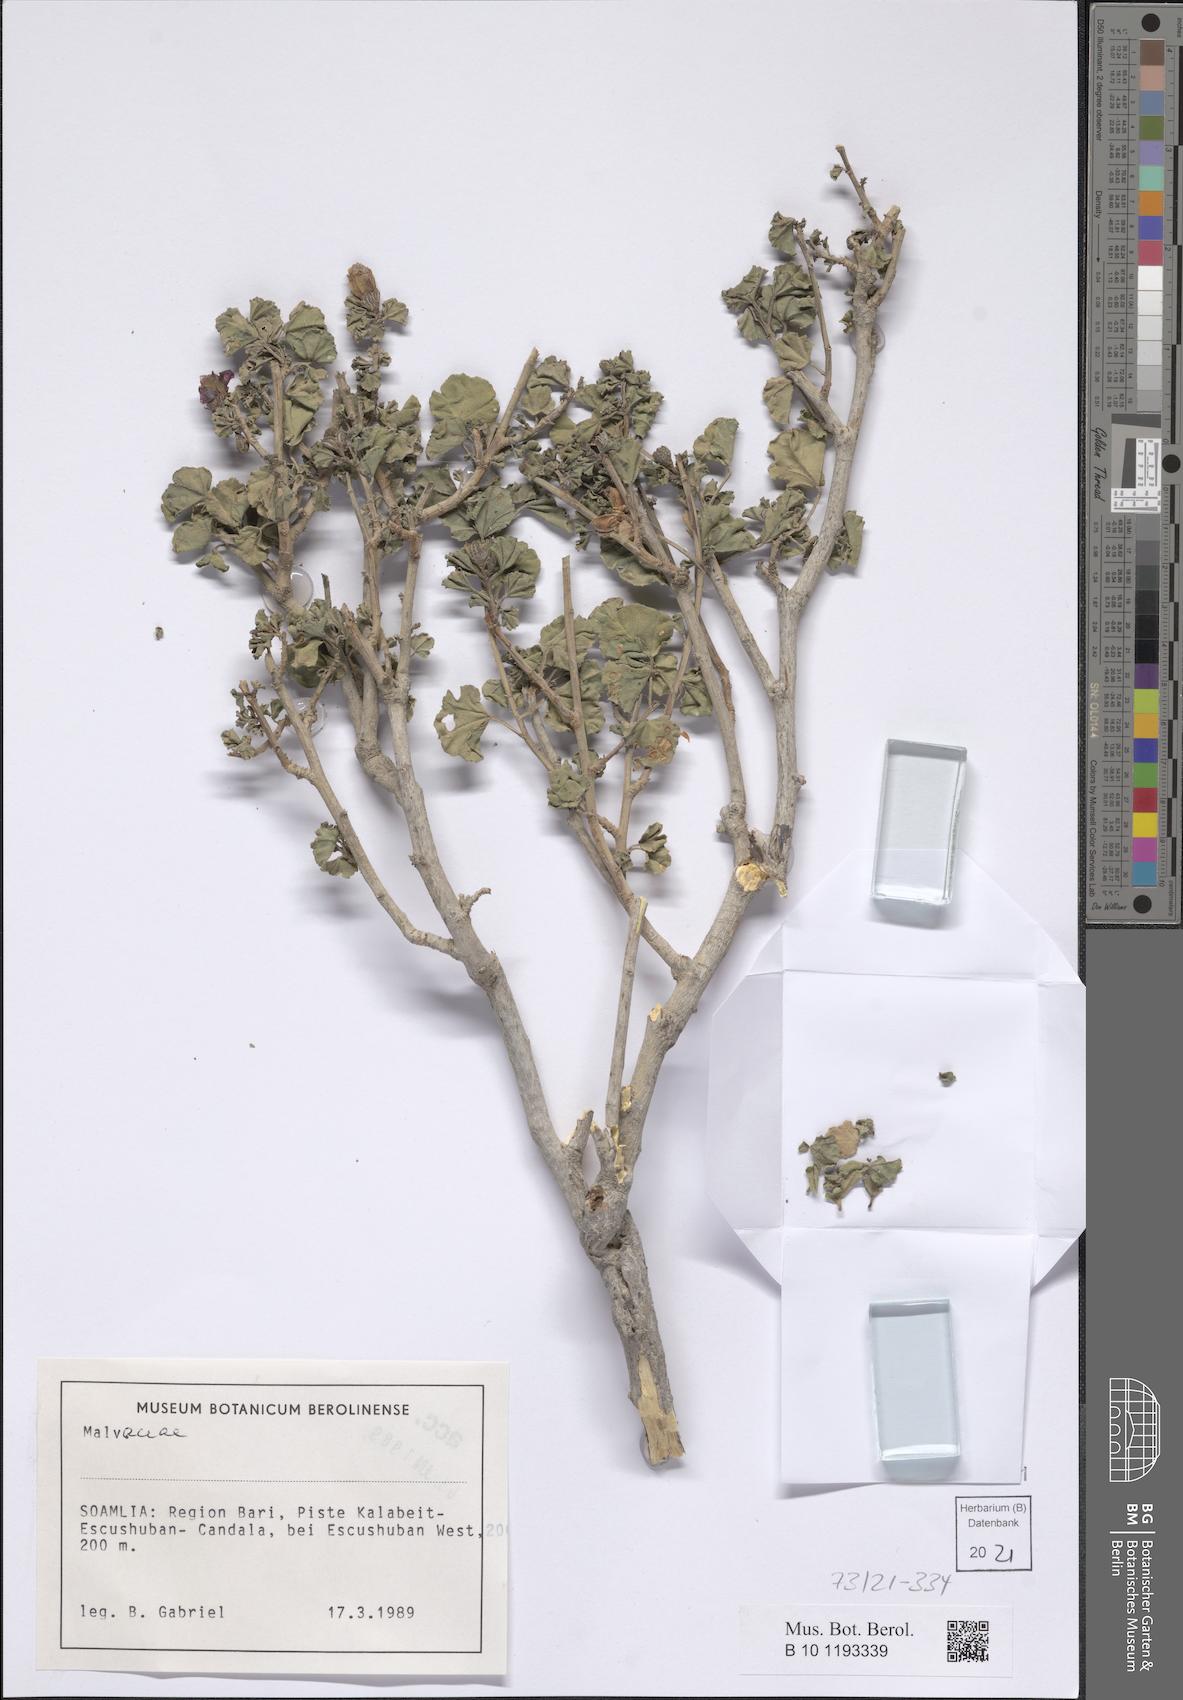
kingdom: Plantae
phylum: Tracheophyta
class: Magnoliopsida
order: Malvales
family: Malvaceae
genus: Cienfuegosia
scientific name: Cienfuegosia welshii
